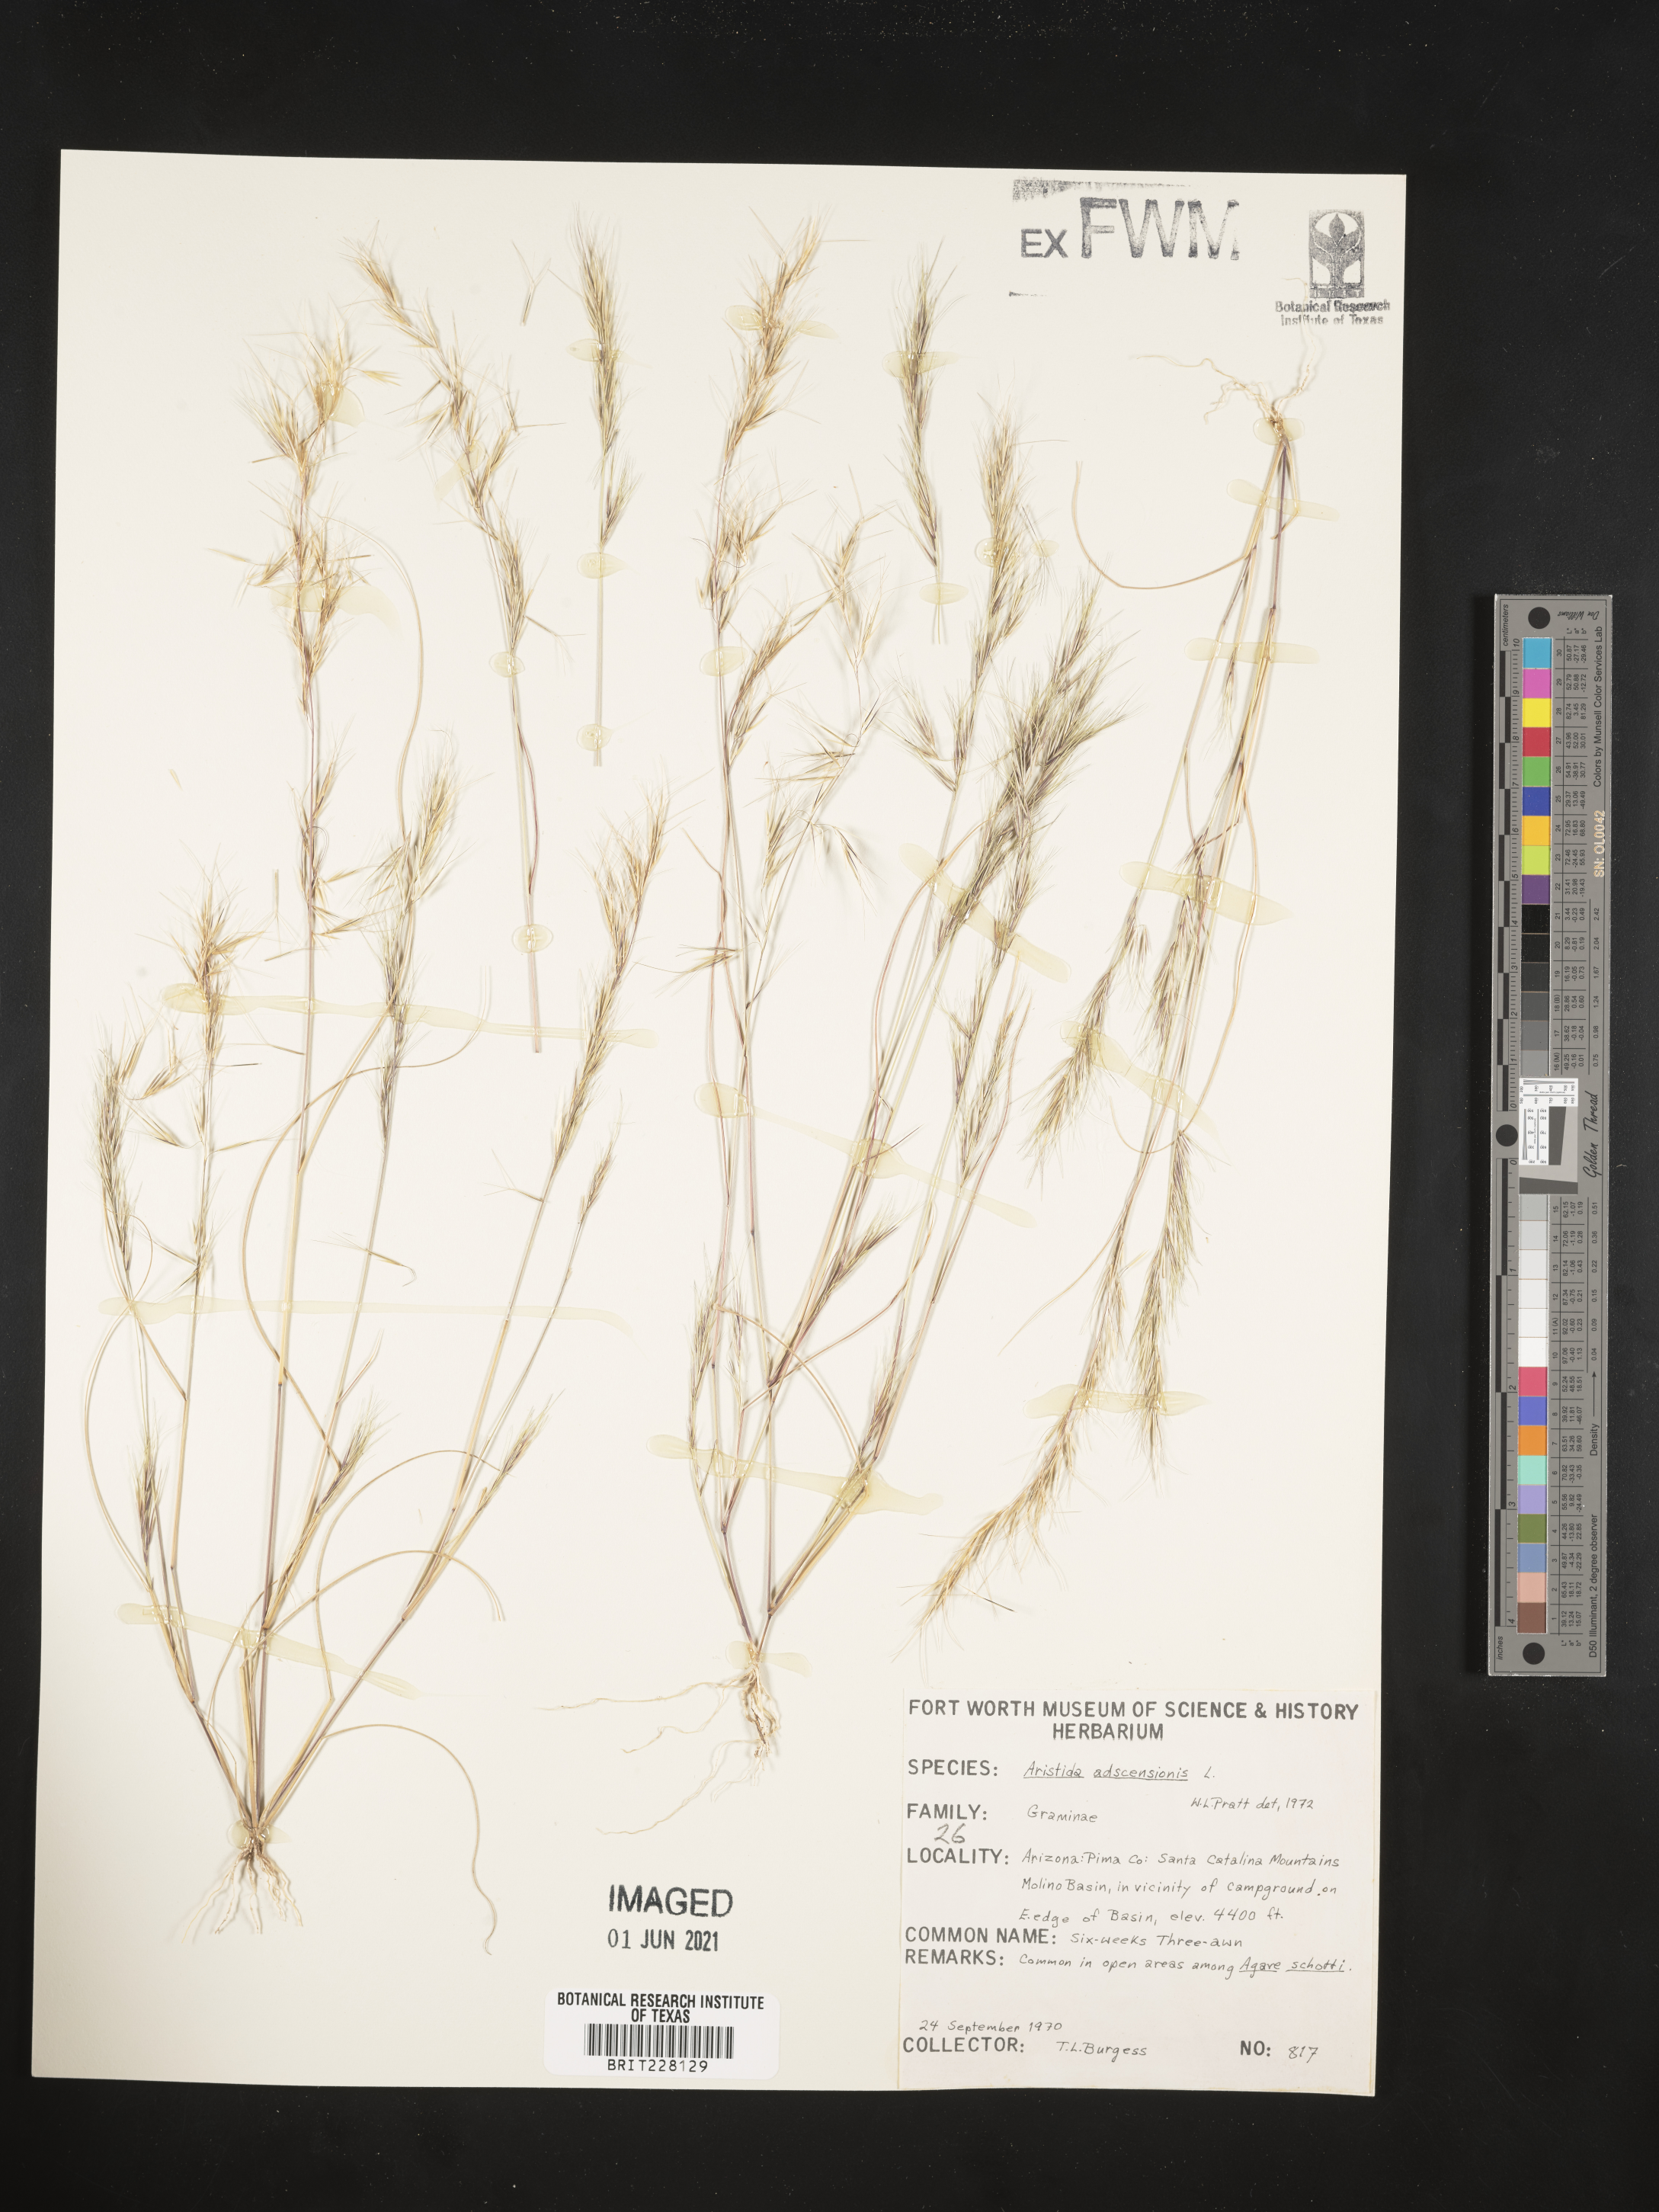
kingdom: Plantae
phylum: Tracheophyta
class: Liliopsida
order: Poales
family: Poaceae
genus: Aristida
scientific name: Aristida adscensionis
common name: Sixweeks threeawn
